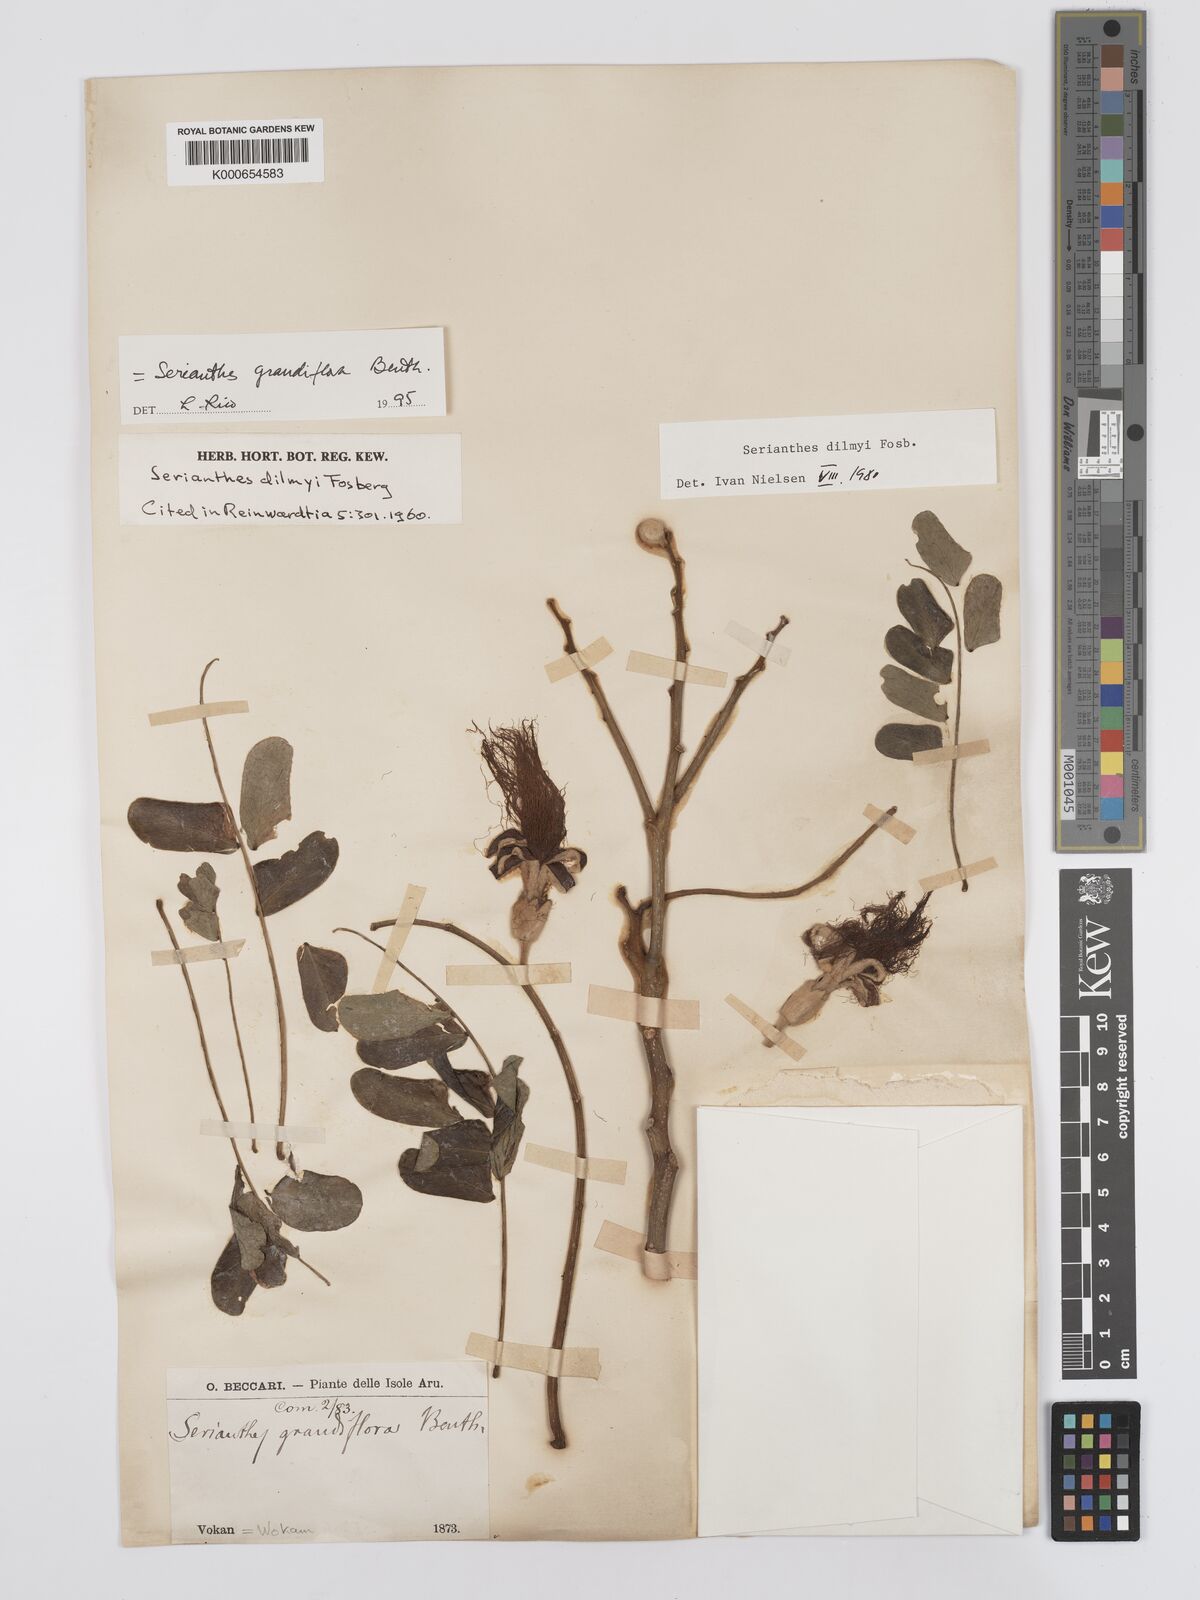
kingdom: Plantae
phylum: Tracheophyta
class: Magnoliopsida
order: Fabales
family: Fabaceae
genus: Serianthes
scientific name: Serianthes grandiflora
